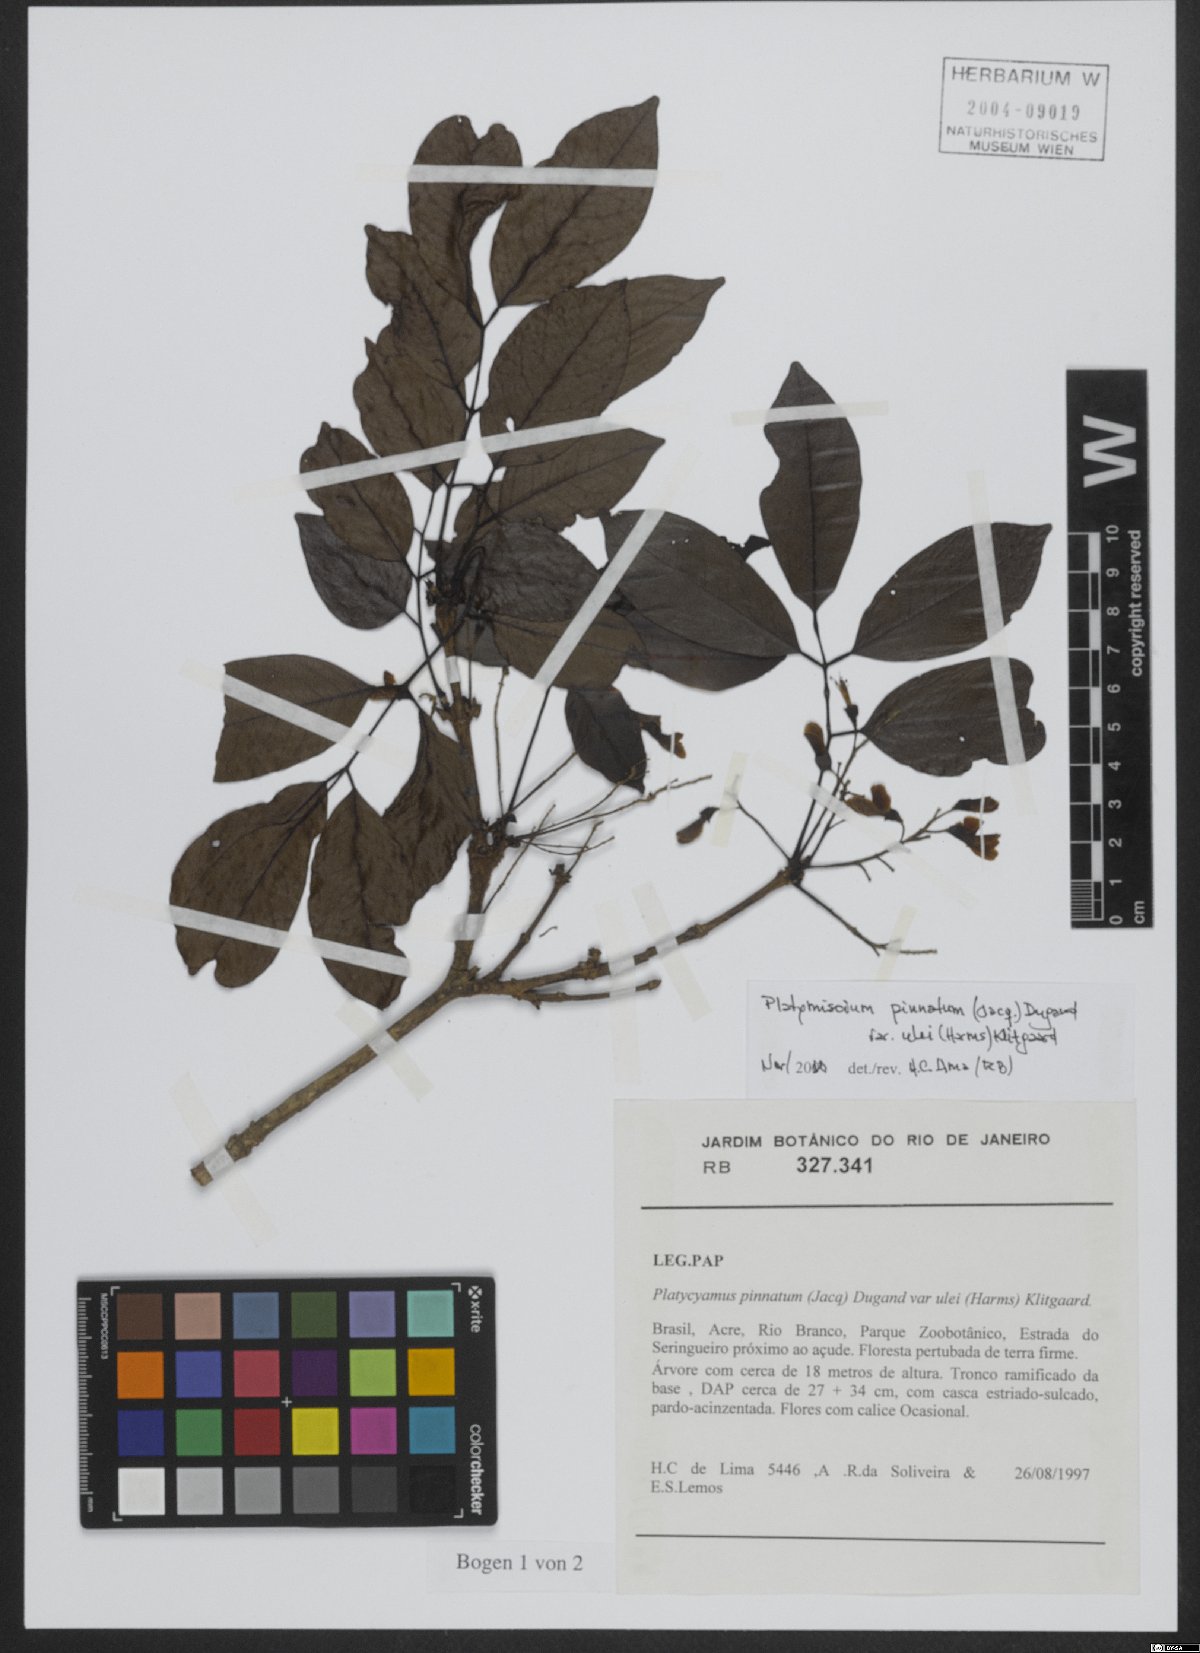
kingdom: Plantae
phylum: Tracheophyta
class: Magnoliopsida
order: Fabales
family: Fabaceae
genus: Platymiscium
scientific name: Platymiscium pinnatum
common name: Panama redwood
